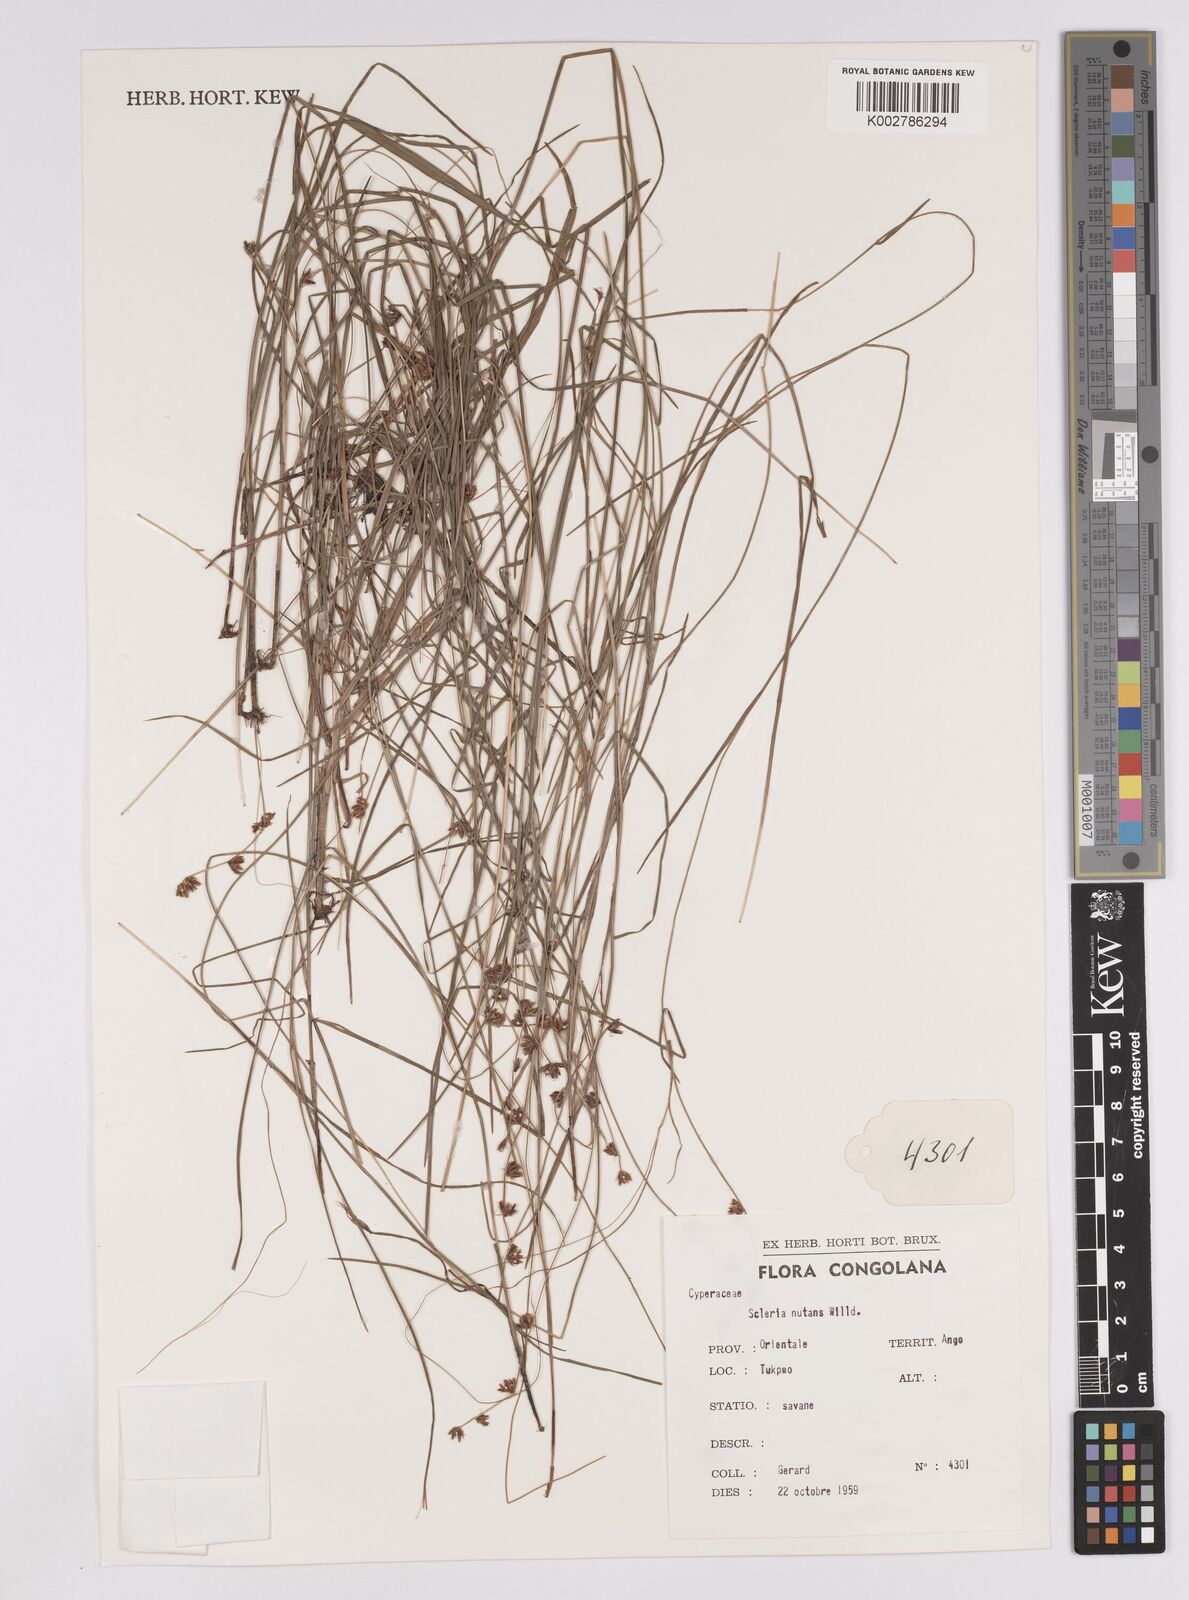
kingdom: Plantae
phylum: Tracheophyta
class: Liliopsida
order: Poales
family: Cyperaceae
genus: Scleria
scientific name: Scleria brownii
